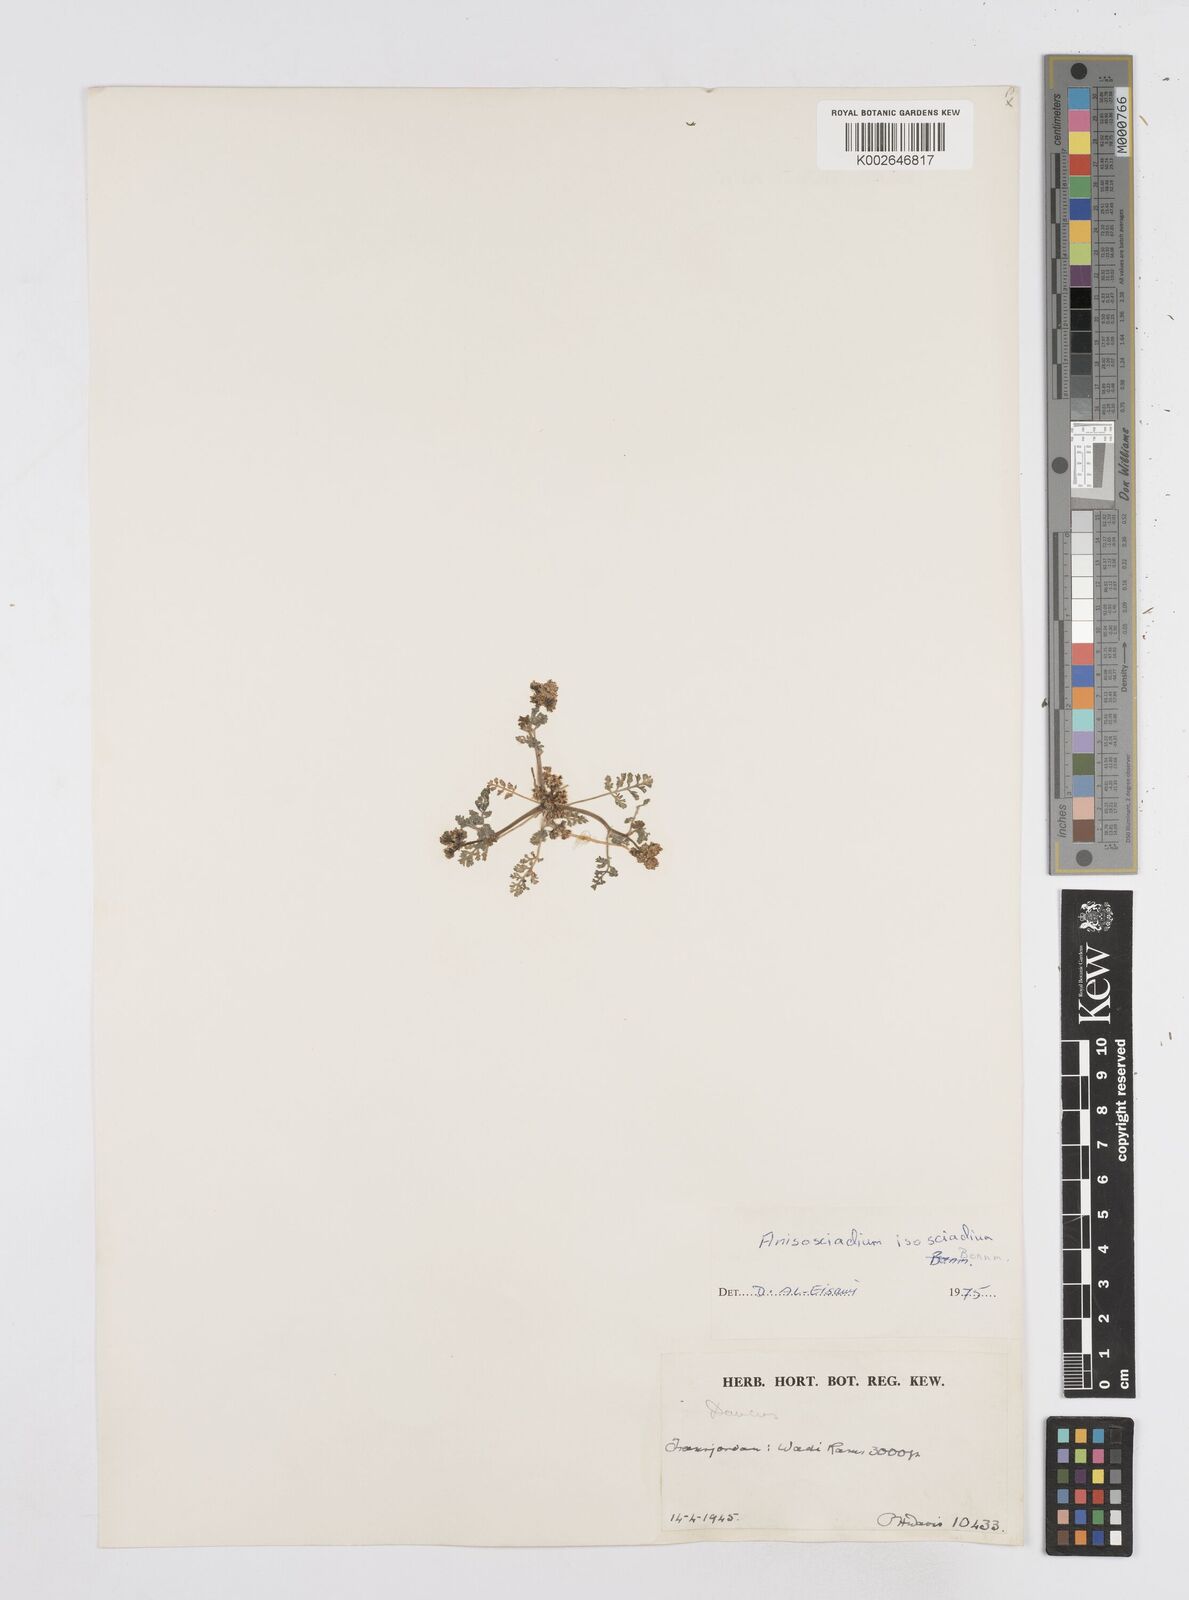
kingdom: Plantae
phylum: Tracheophyta
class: Magnoliopsida
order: Apiales
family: Apiaceae
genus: Anisosciadium
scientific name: Anisosciadium isosciadium
